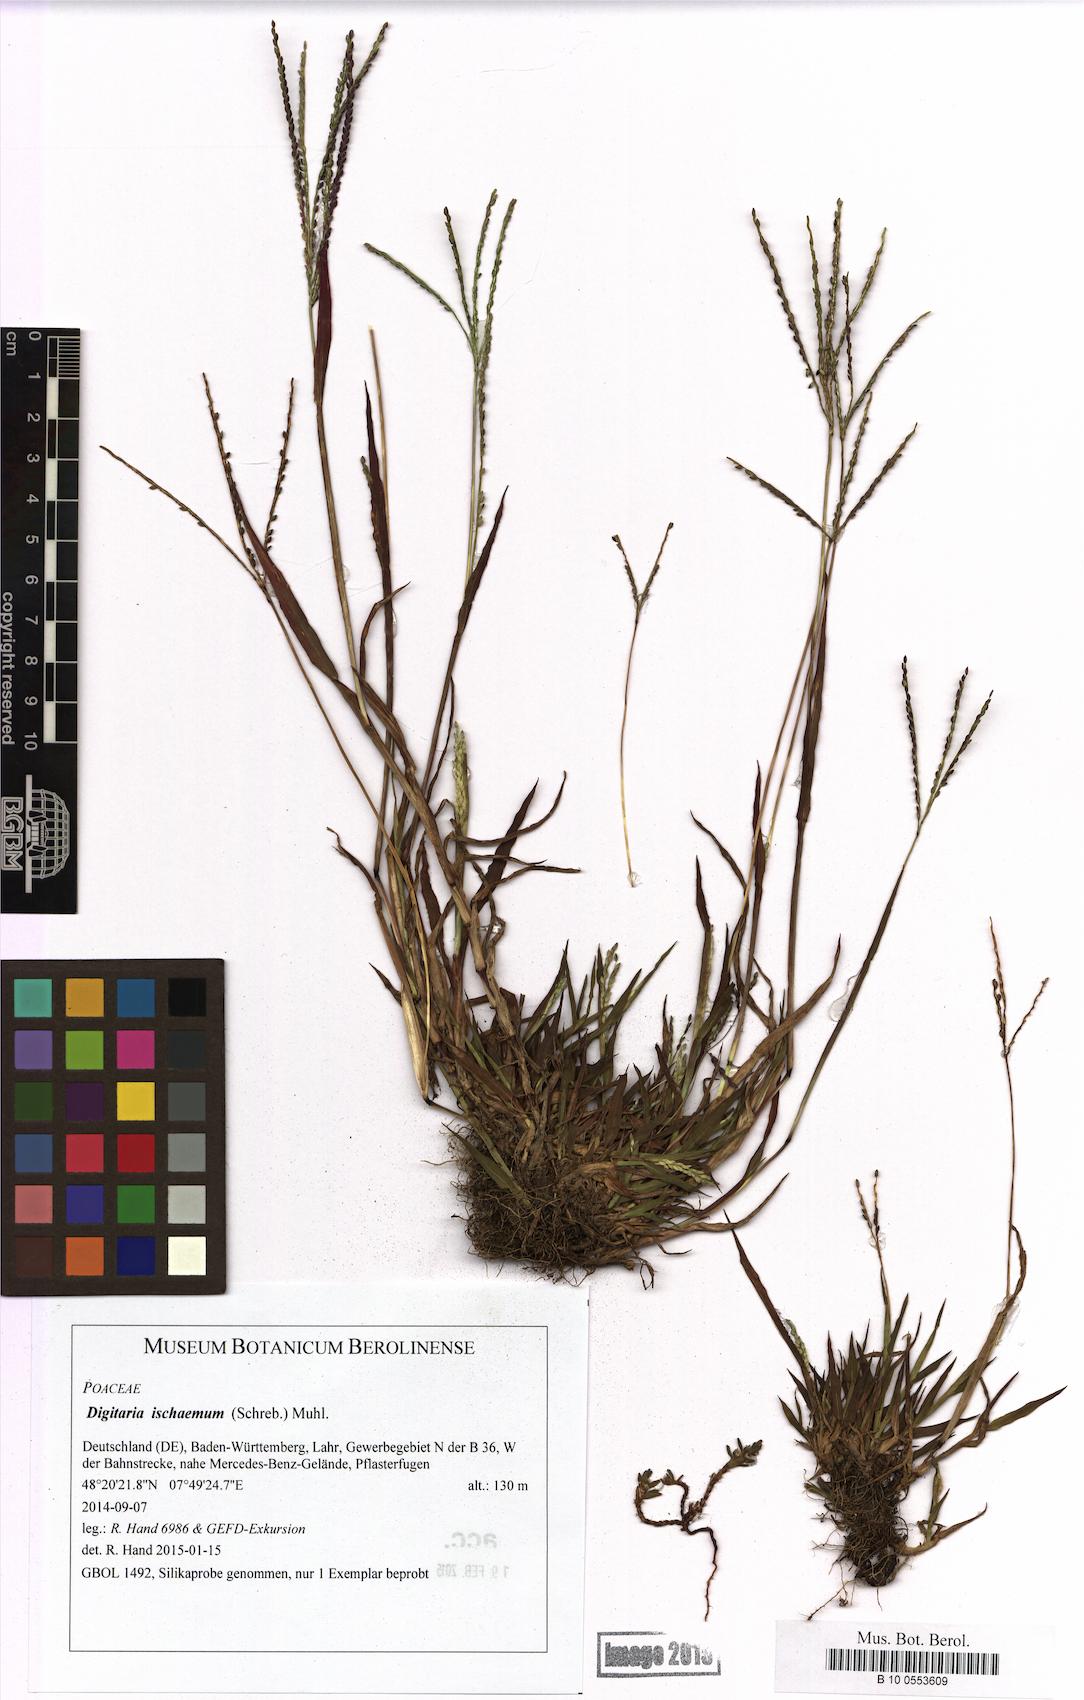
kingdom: Plantae
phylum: Tracheophyta
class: Liliopsida
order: Poales
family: Poaceae
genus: Digitaria
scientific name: Digitaria ischaemum
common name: Smooth crabgrass
